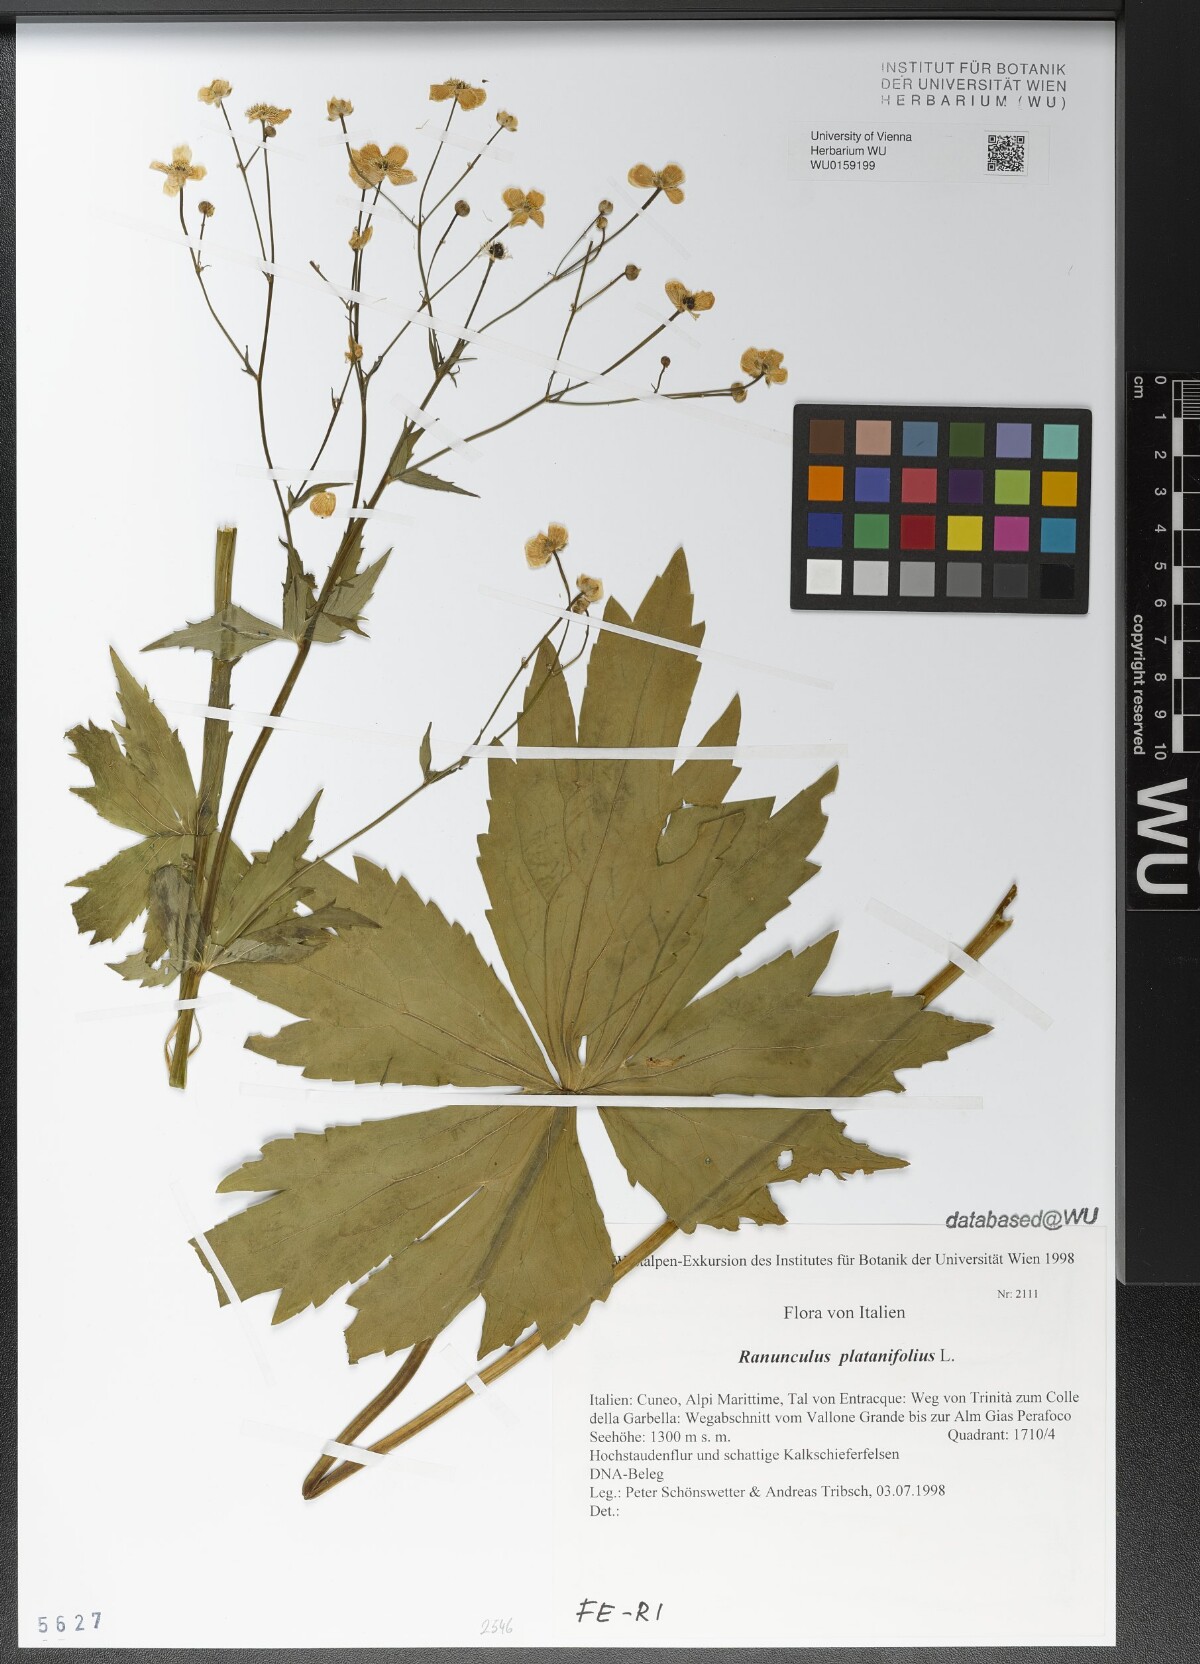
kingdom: Plantae
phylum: Tracheophyta
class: Magnoliopsida
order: Ranunculales
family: Ranunculaceae
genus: Ranunculus
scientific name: Ranunculus platanifolius
